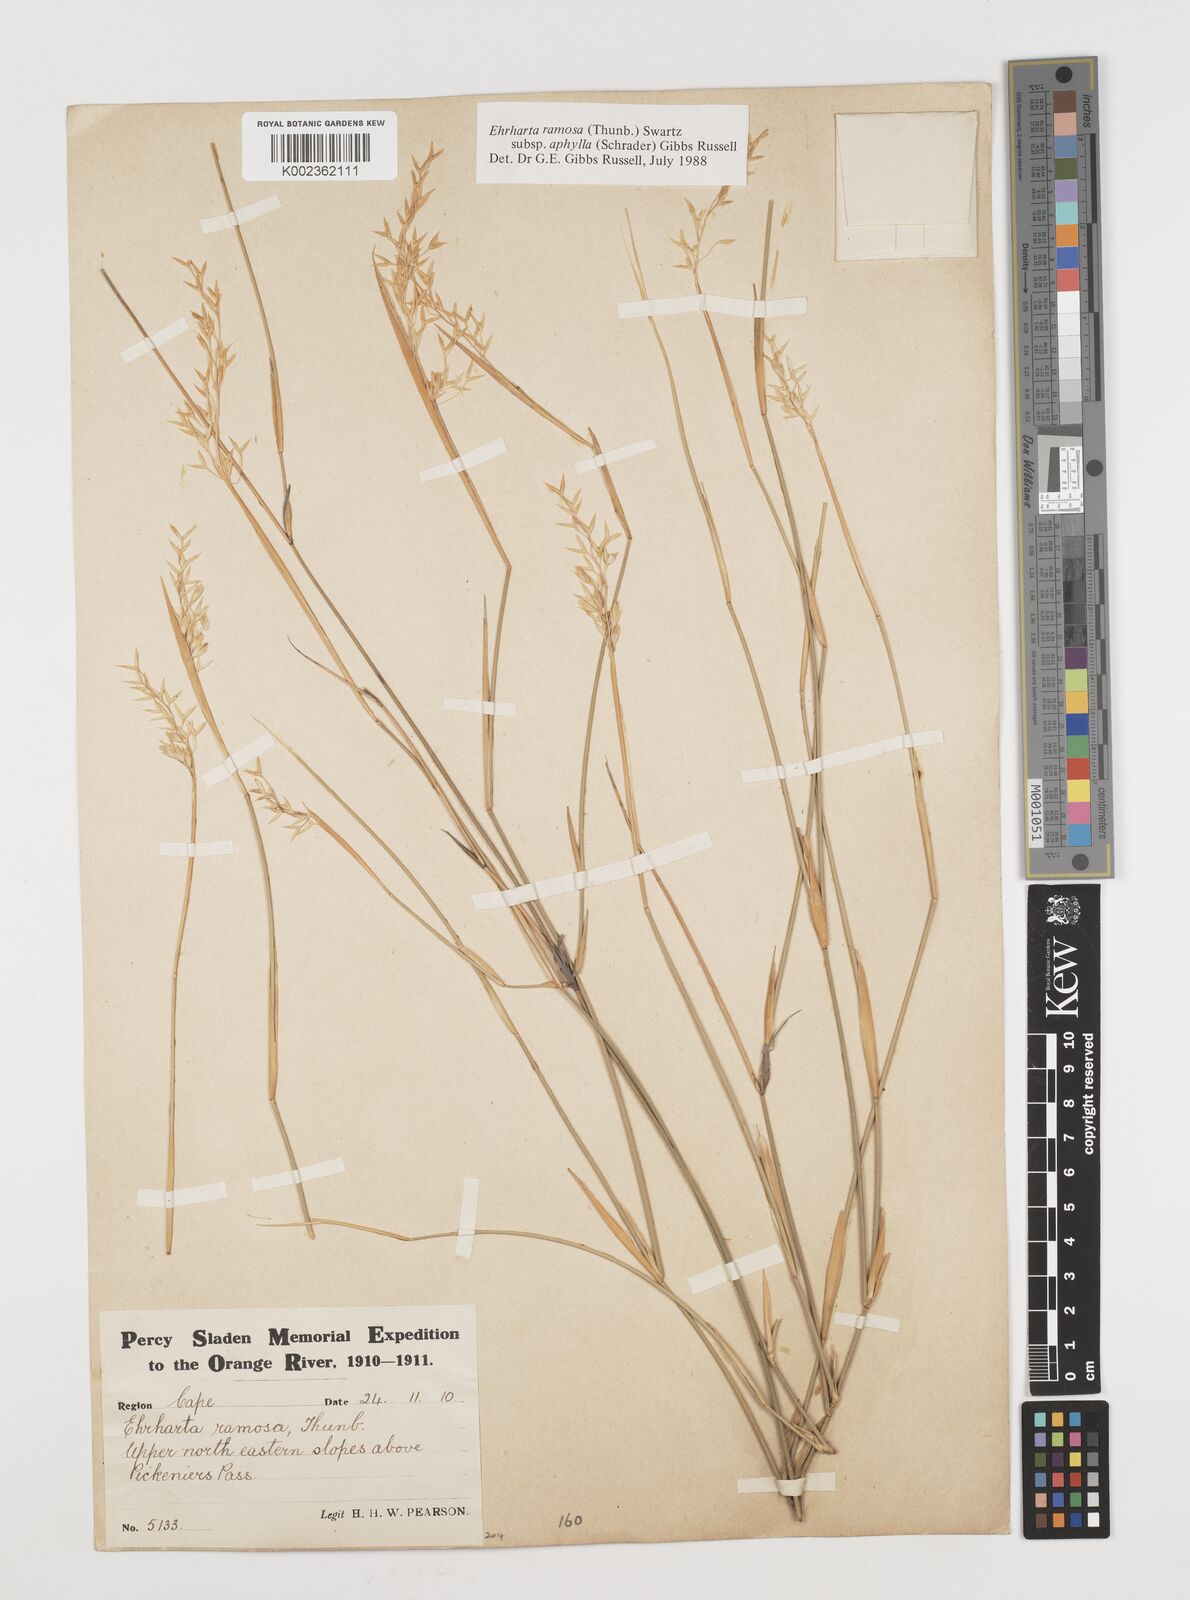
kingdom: Plantae
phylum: Tracheophyta
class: Liliopsida
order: Poales
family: Poaceae
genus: Ehrharta
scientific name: Ehrharta digyna
